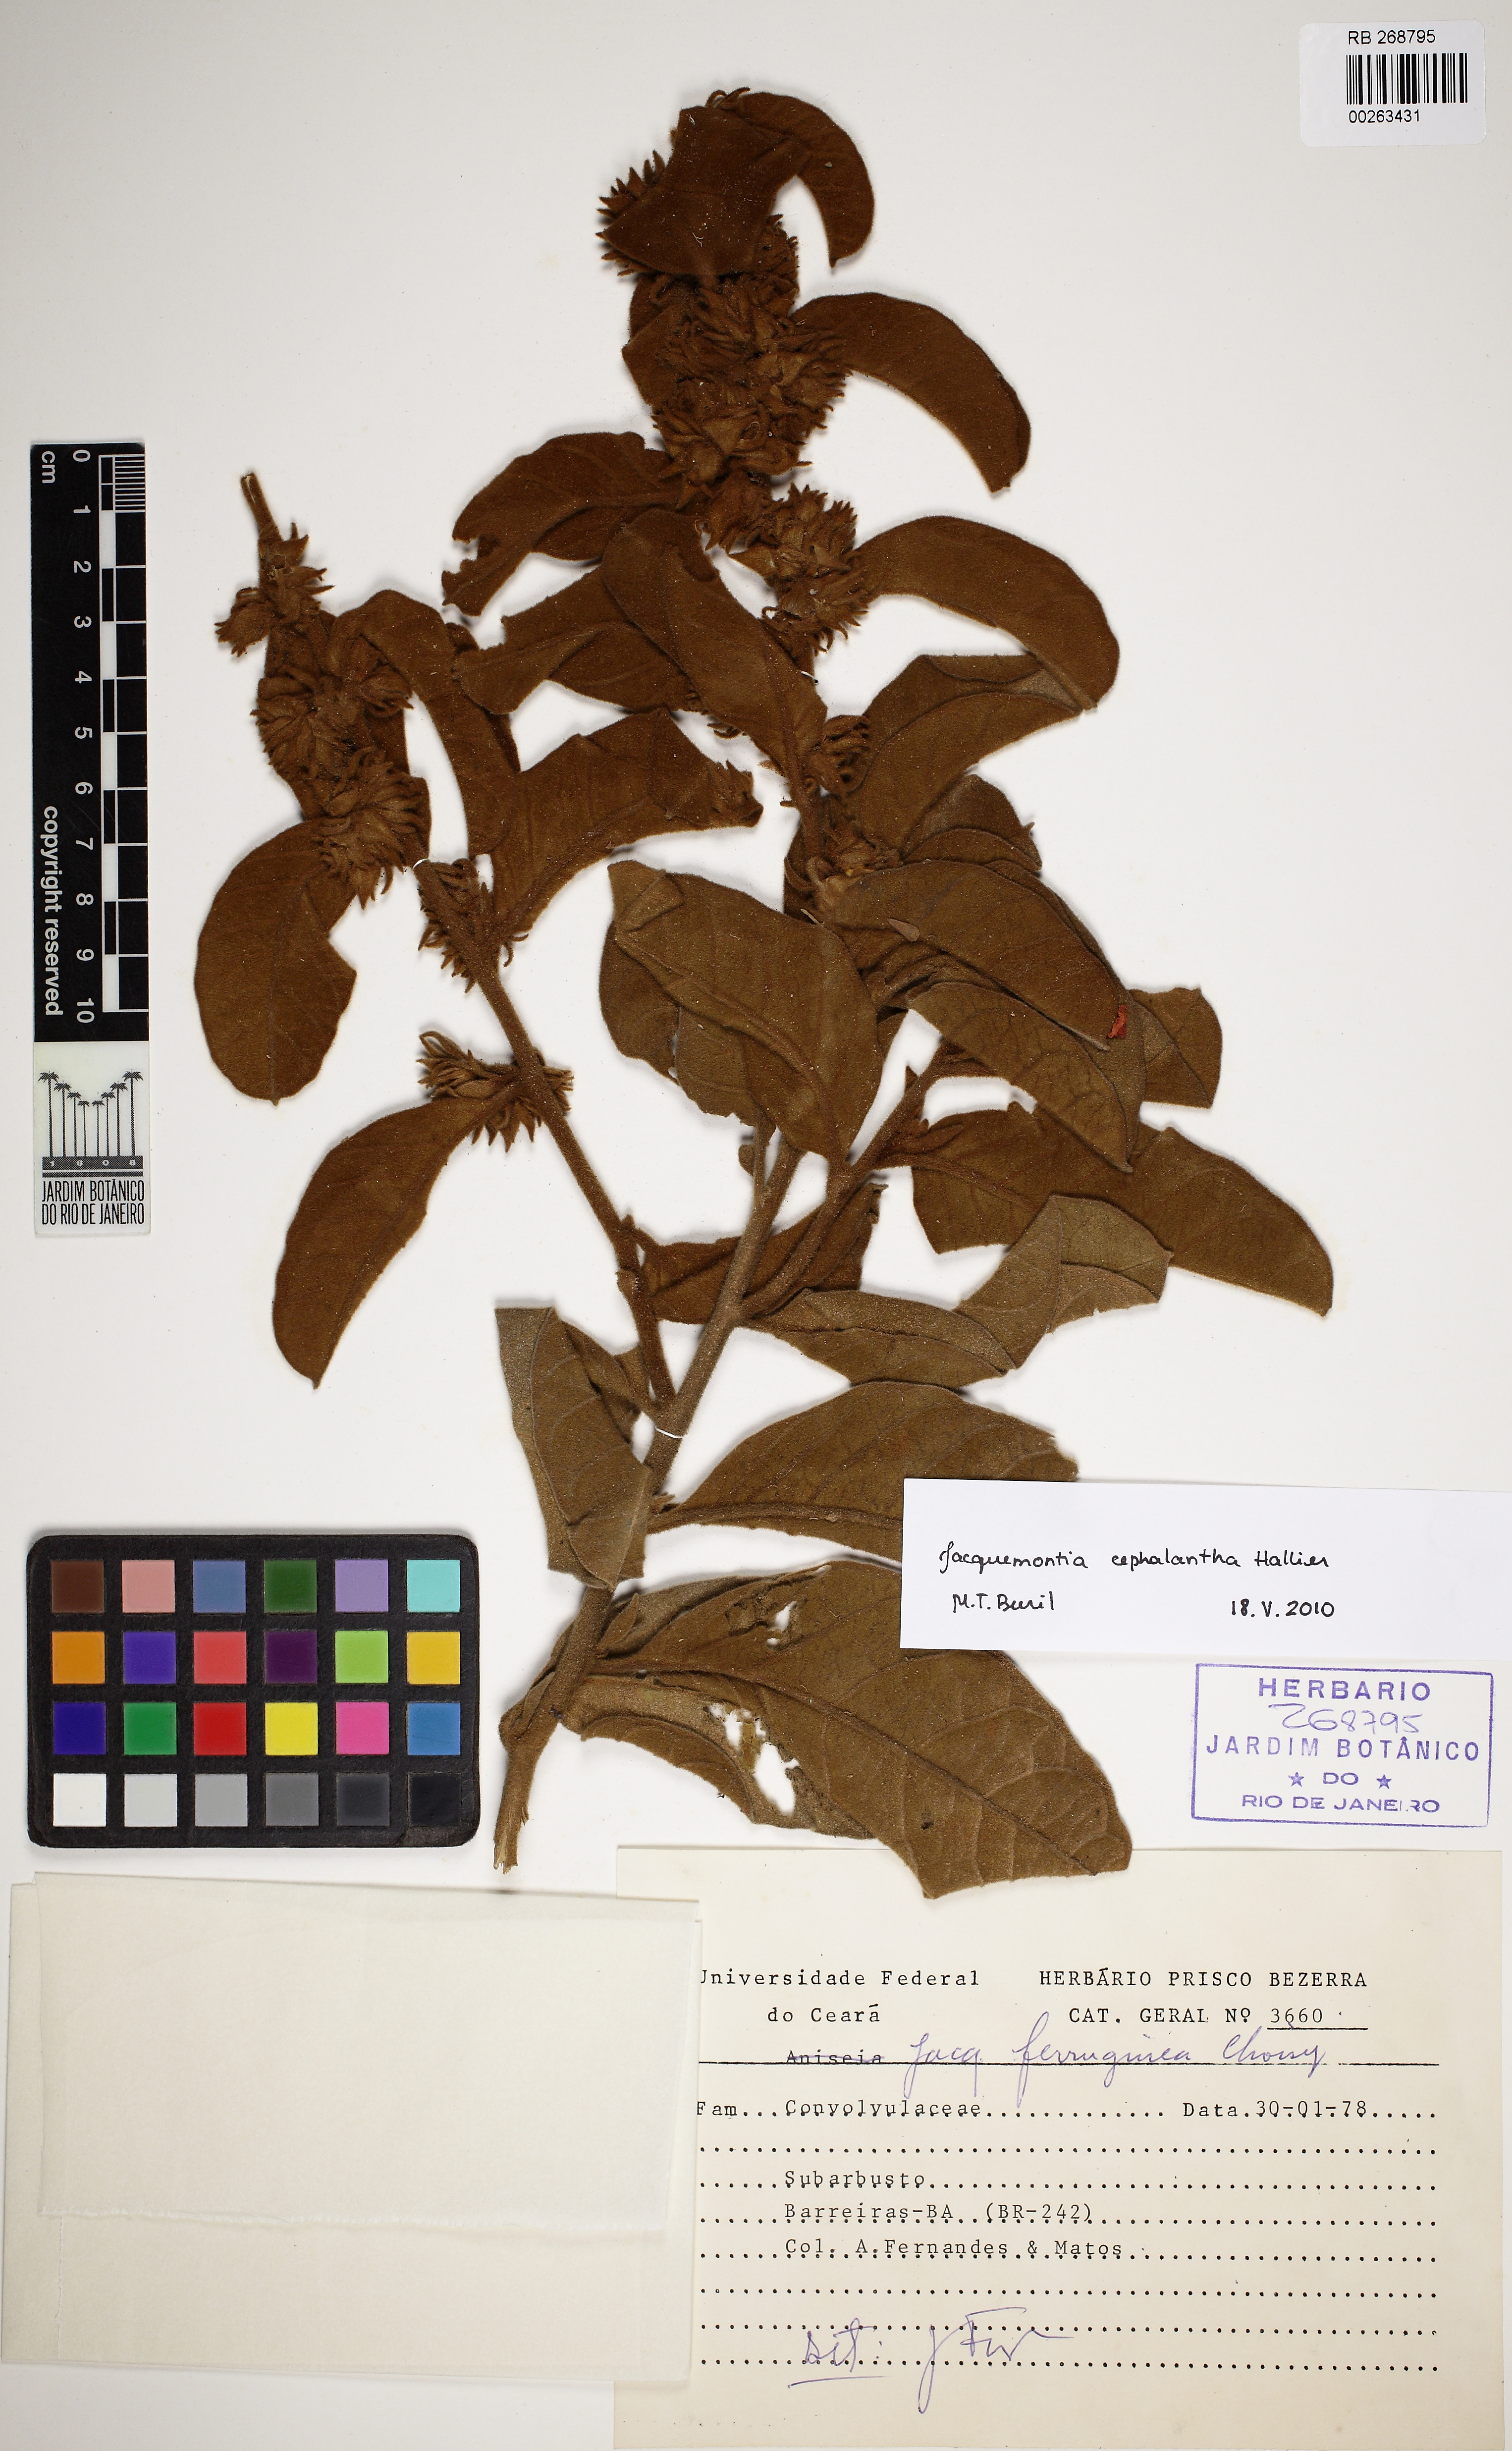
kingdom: Plantae
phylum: Tracheophyta
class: Magnoliopsida
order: Solanales
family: Convolvulaceae
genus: Jacquemontia
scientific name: Jacquemontia sphaerocephala
